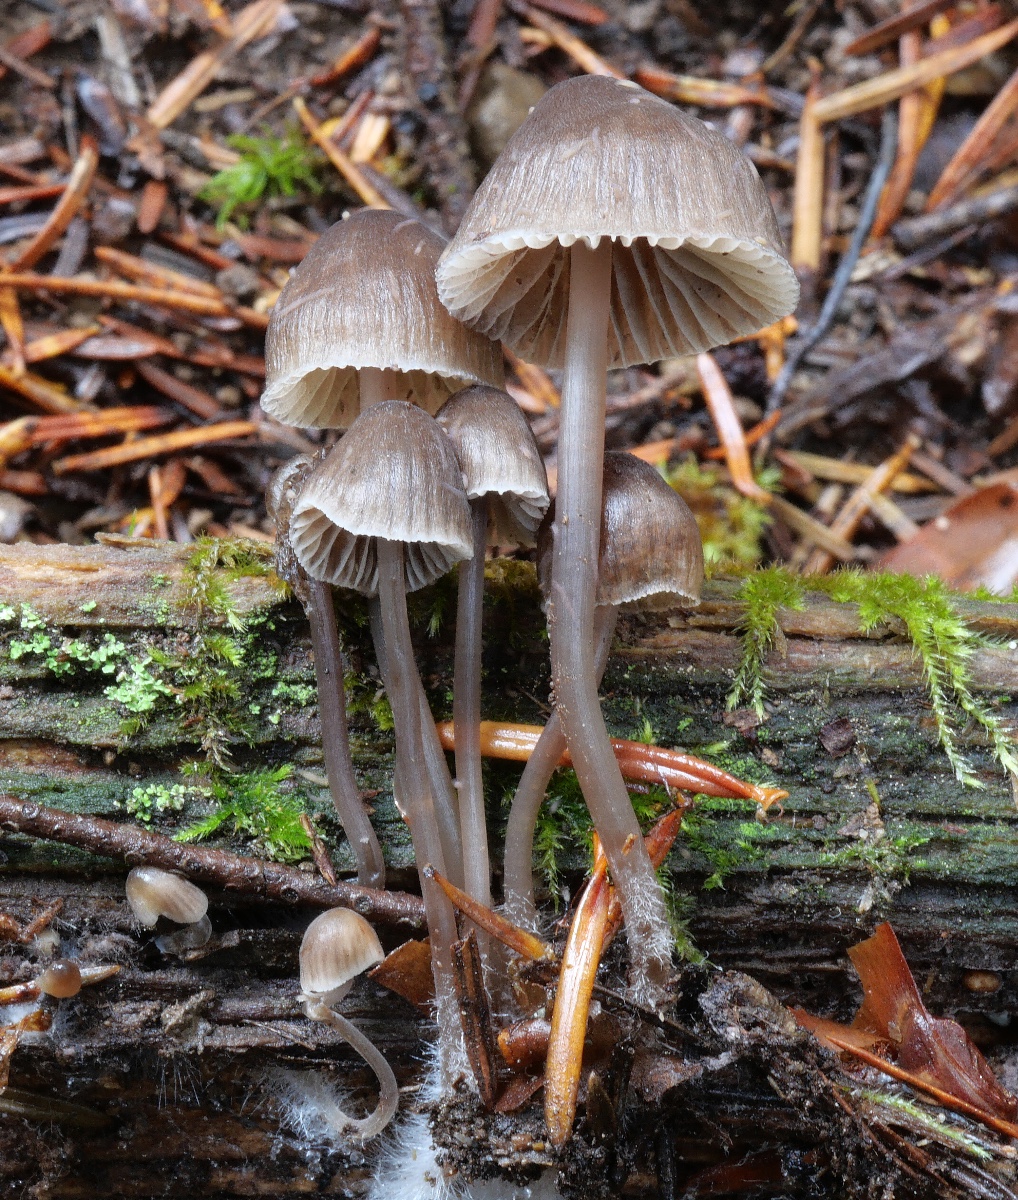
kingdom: Fungi
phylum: Basidiomycota
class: Agaricomycetes
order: Agaricales
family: Mycenaceae
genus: Mycena
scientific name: Mycena
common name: huesvamp
